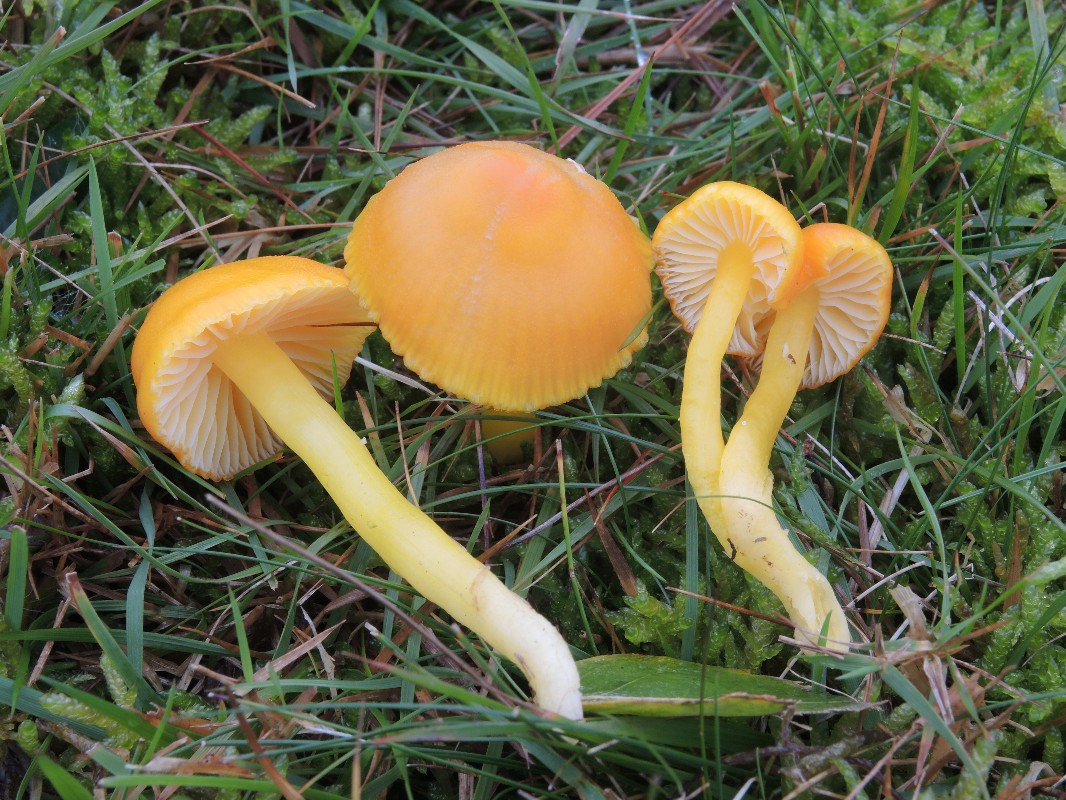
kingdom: Fungi
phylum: Basidiomycota
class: Agaricomycetes
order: Agaricales
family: Hygrophoraceae
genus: Hygrocybe
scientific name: Hygrocybe ceracea
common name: voksgul vokshat
